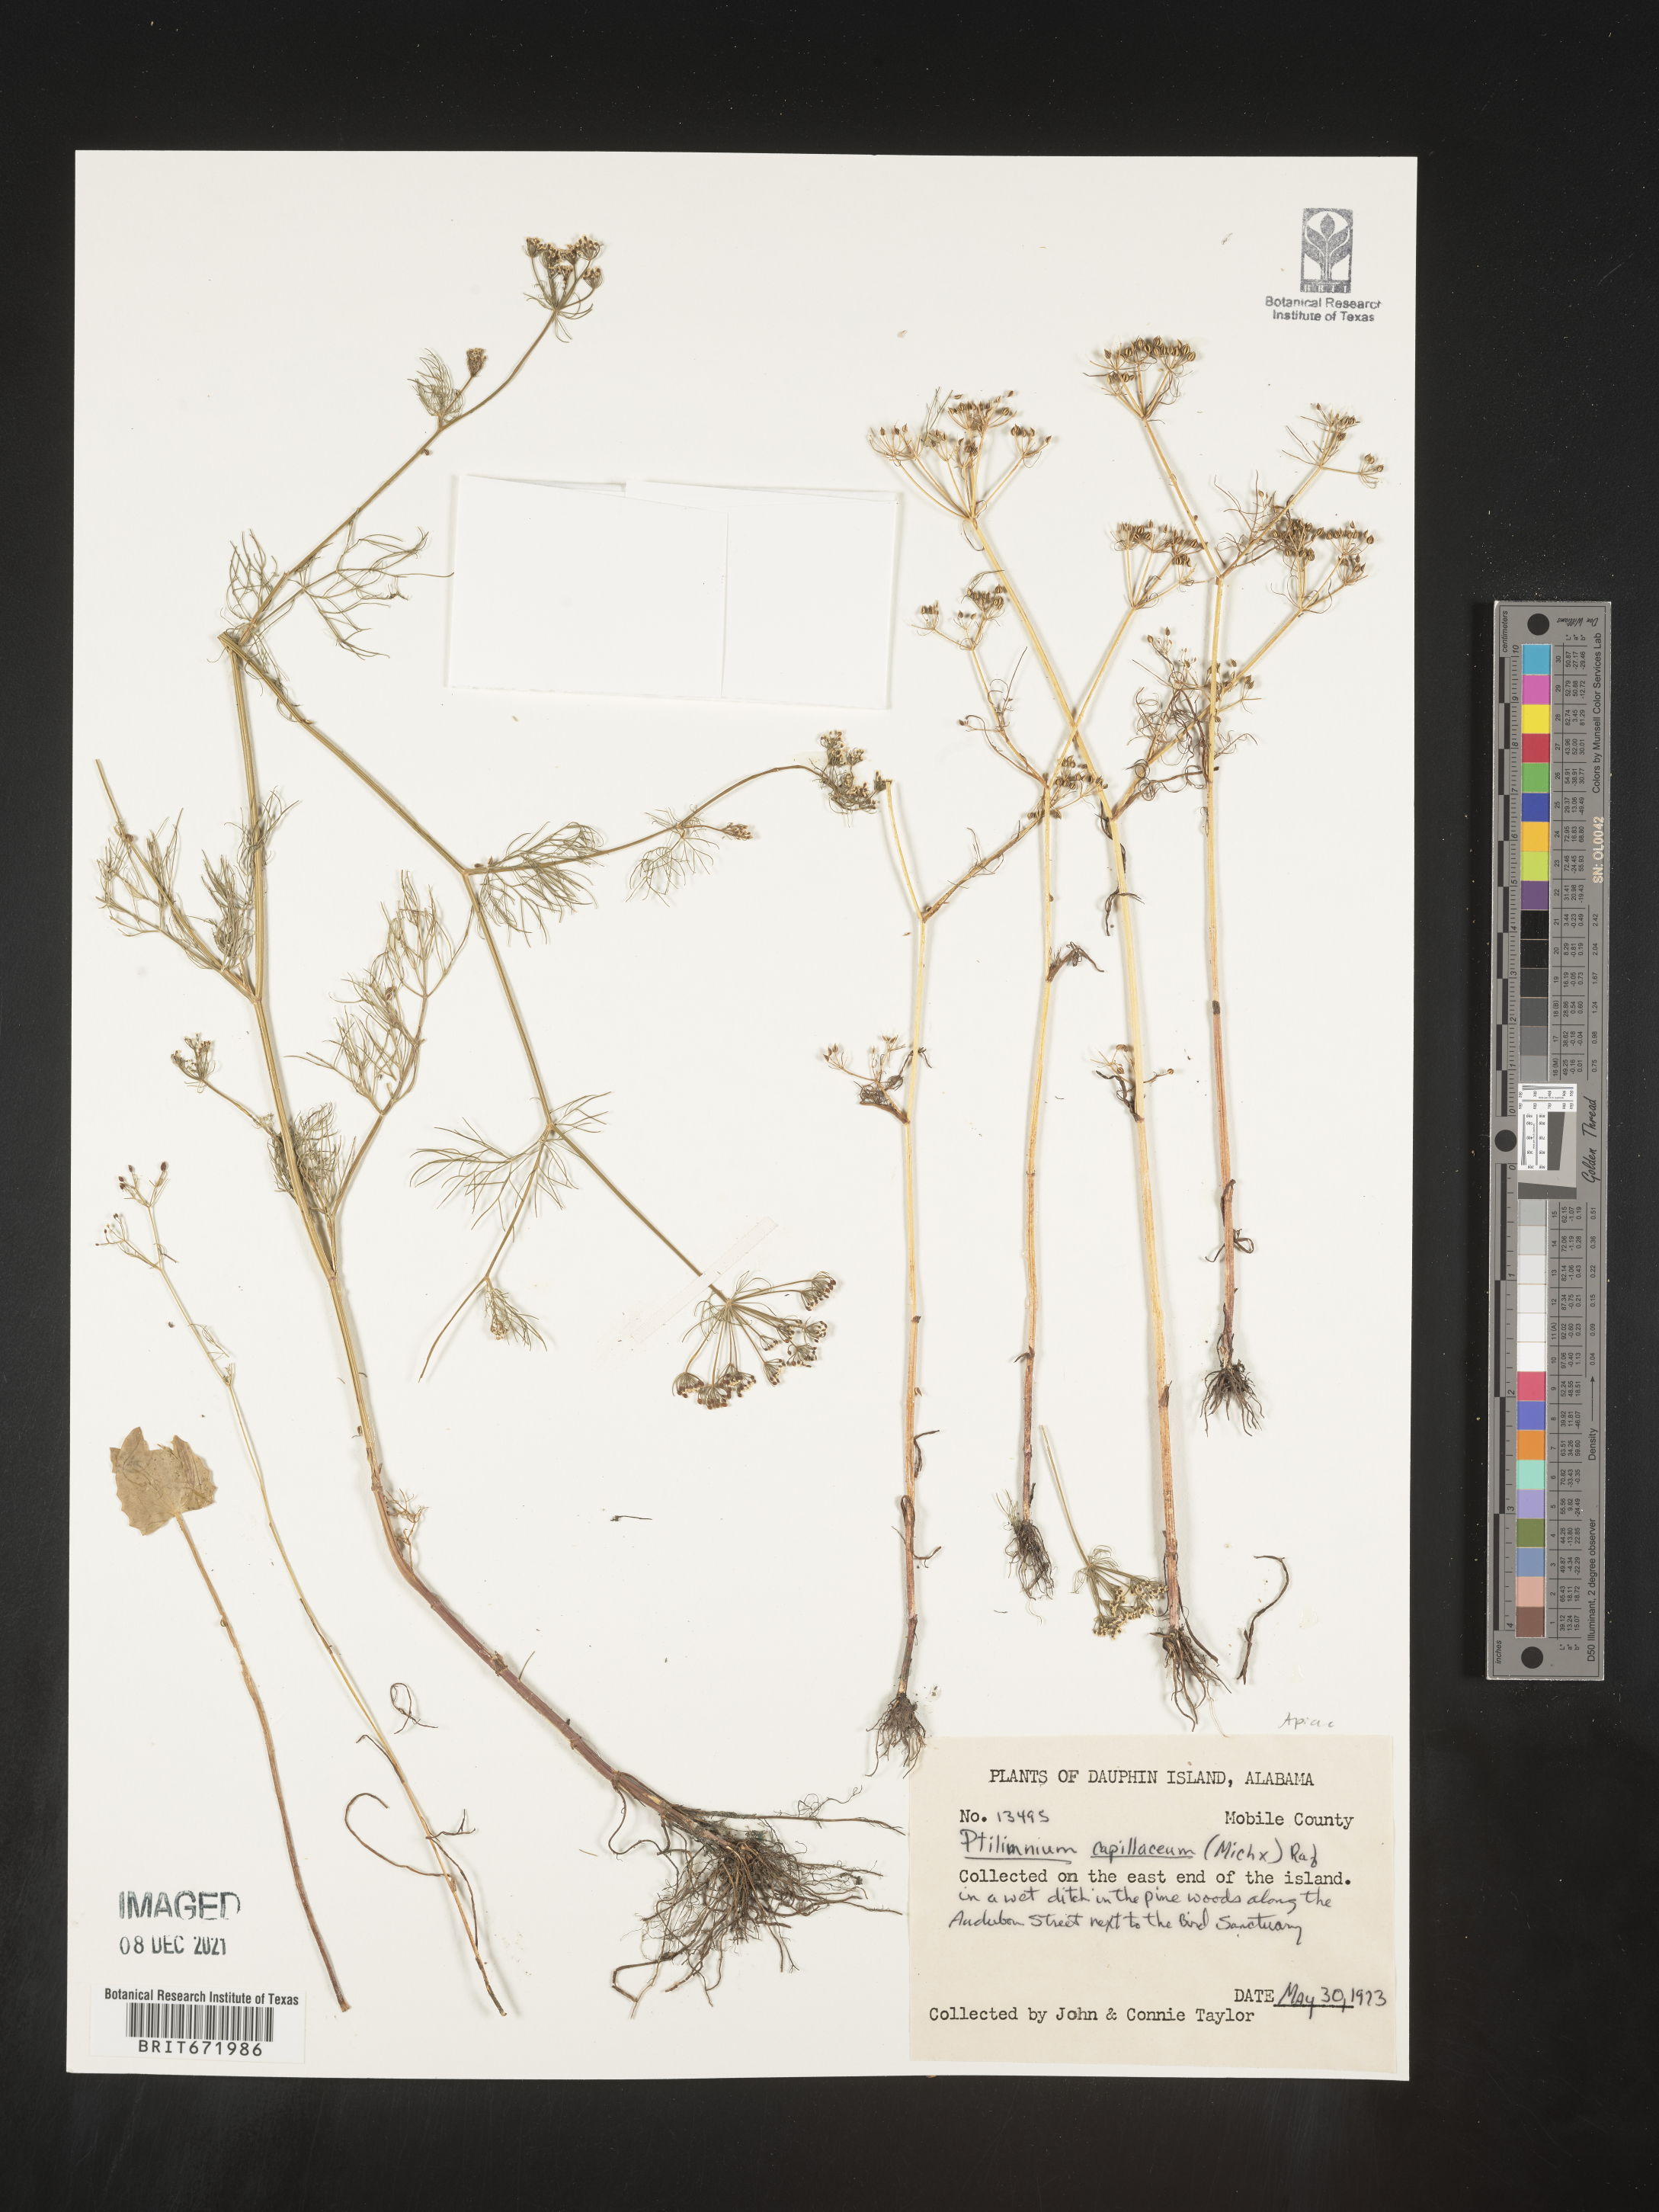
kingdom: Plantae
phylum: Tracheophyta
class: Magnoliopsida
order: Apiales
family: Apiaceae
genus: Ptilimnium
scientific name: Ptilimnium capillaceum
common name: Herbwilliam
